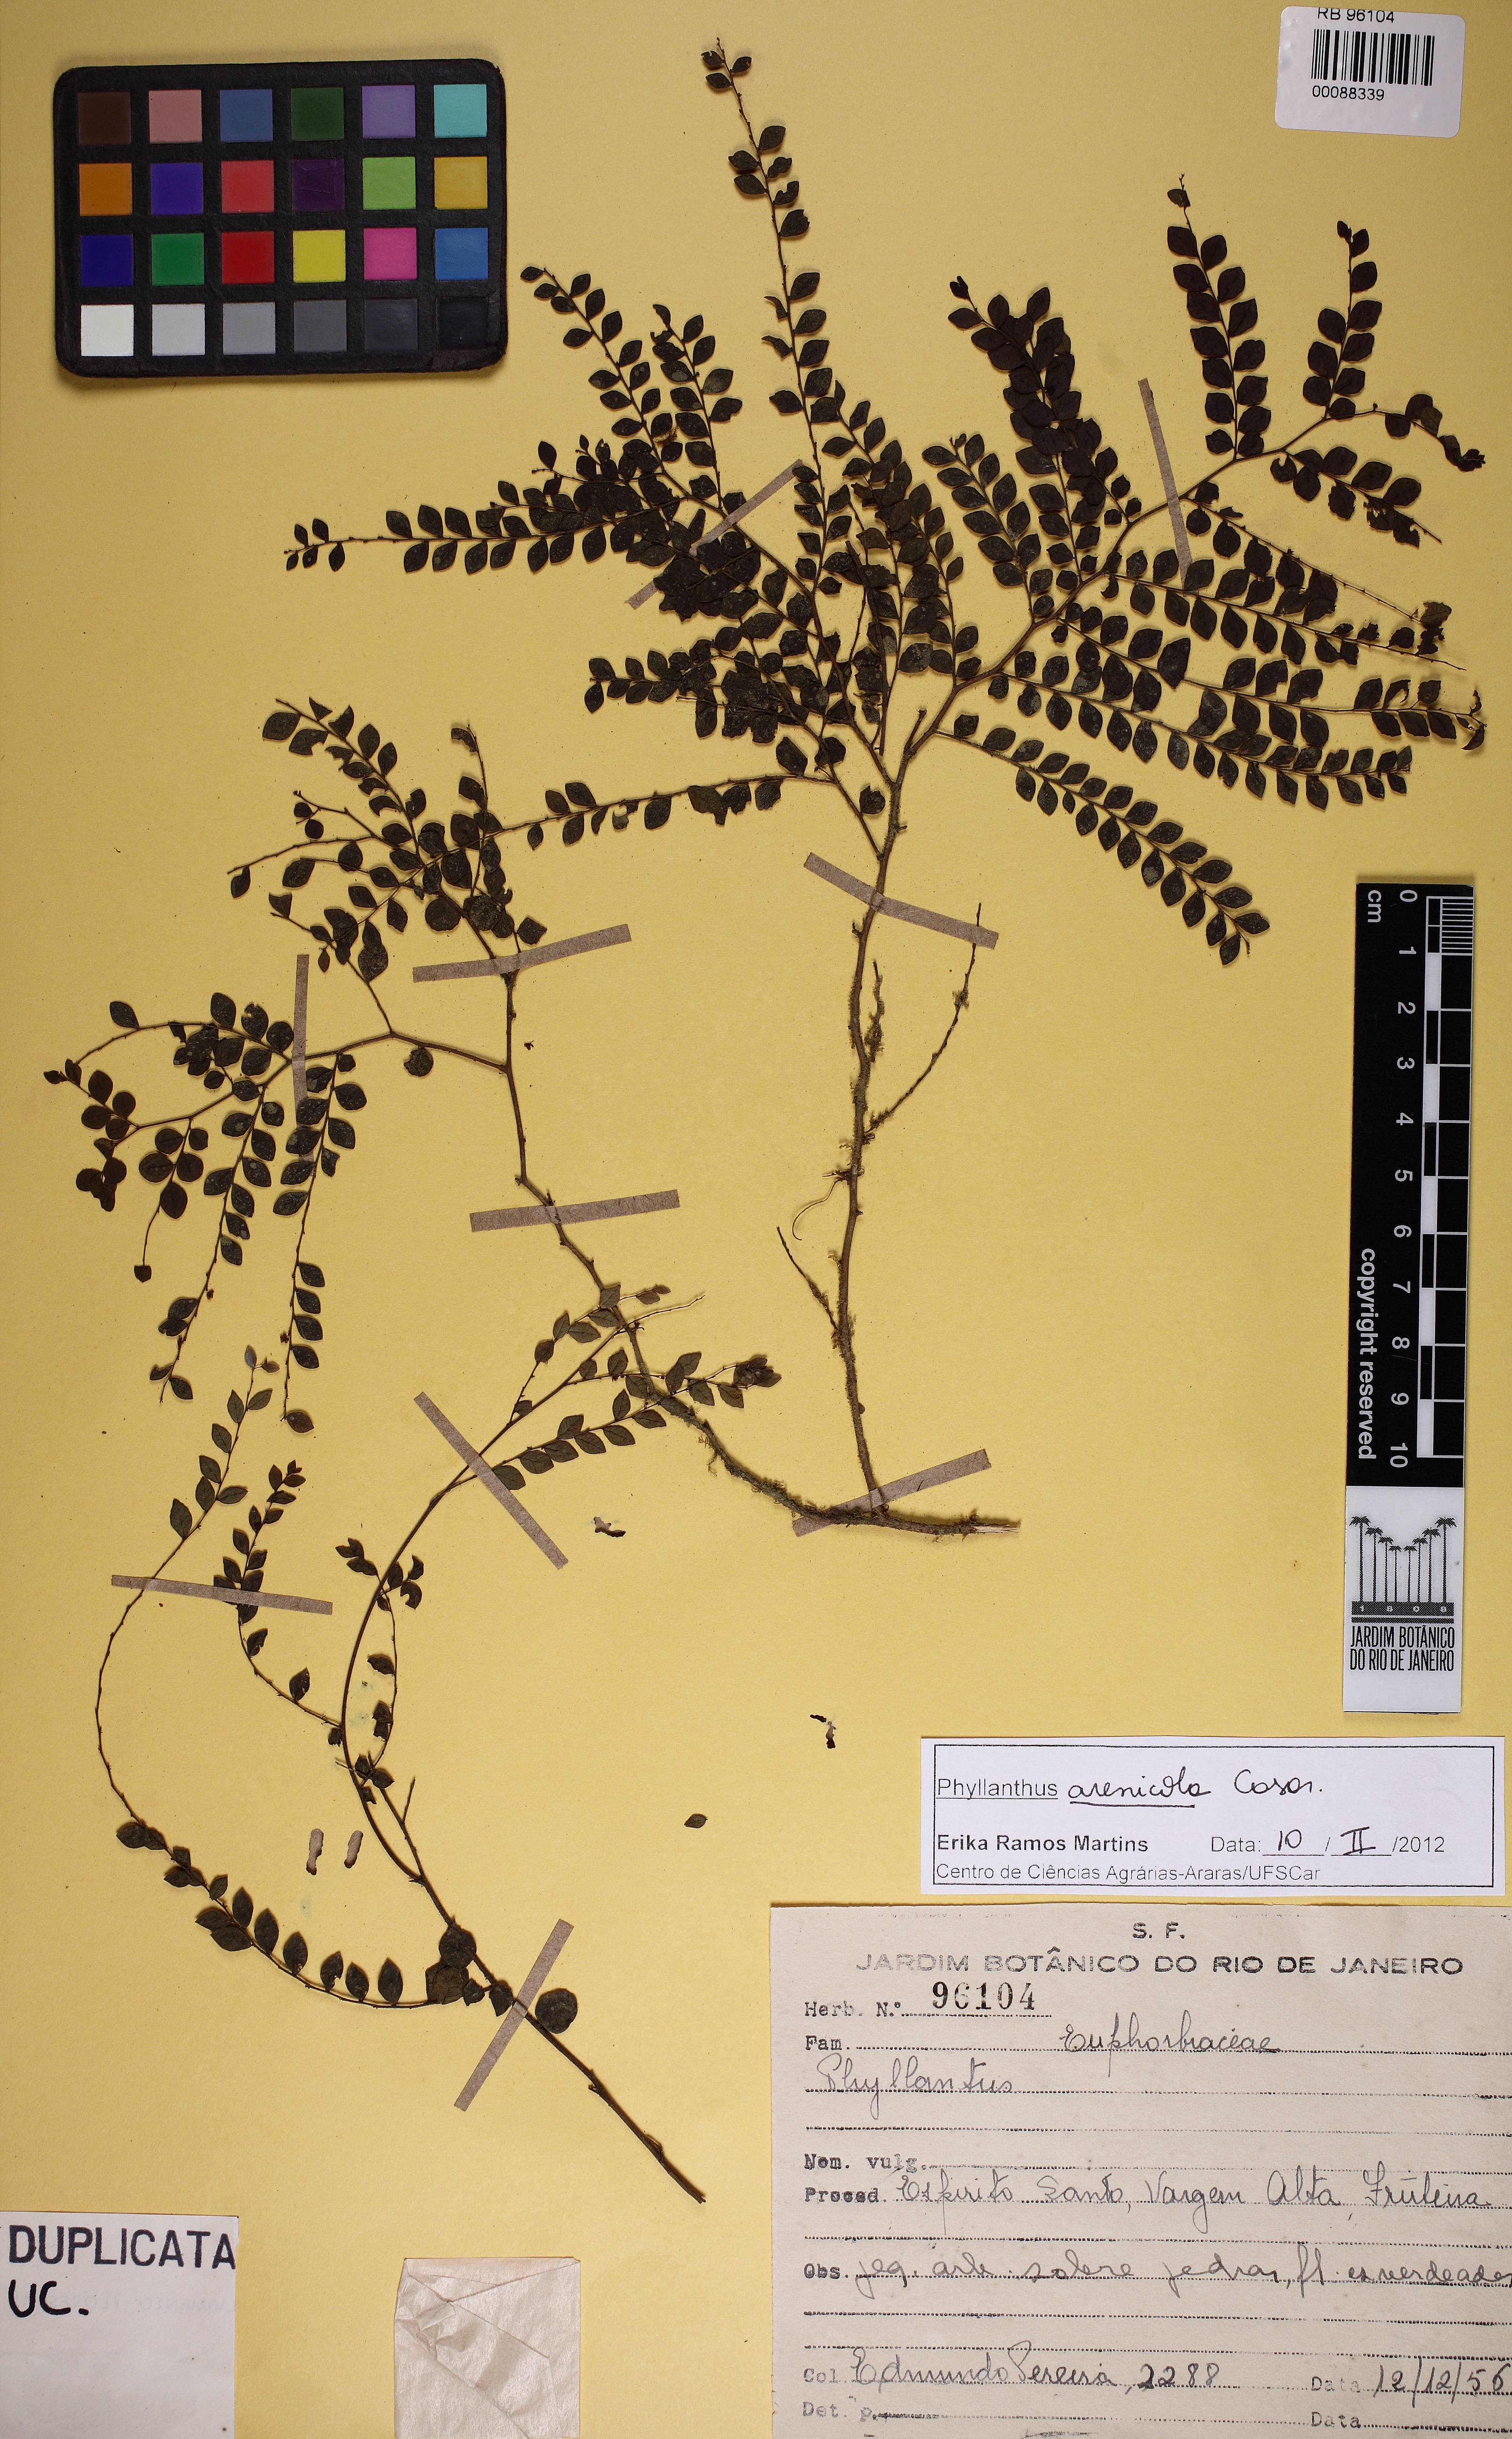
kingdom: Plantae
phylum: Tracheophyta
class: Magnoliopsida
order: Malpighiales
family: Phyllanthaceae
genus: Phyllanthus
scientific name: Phyllanthus arenicola
